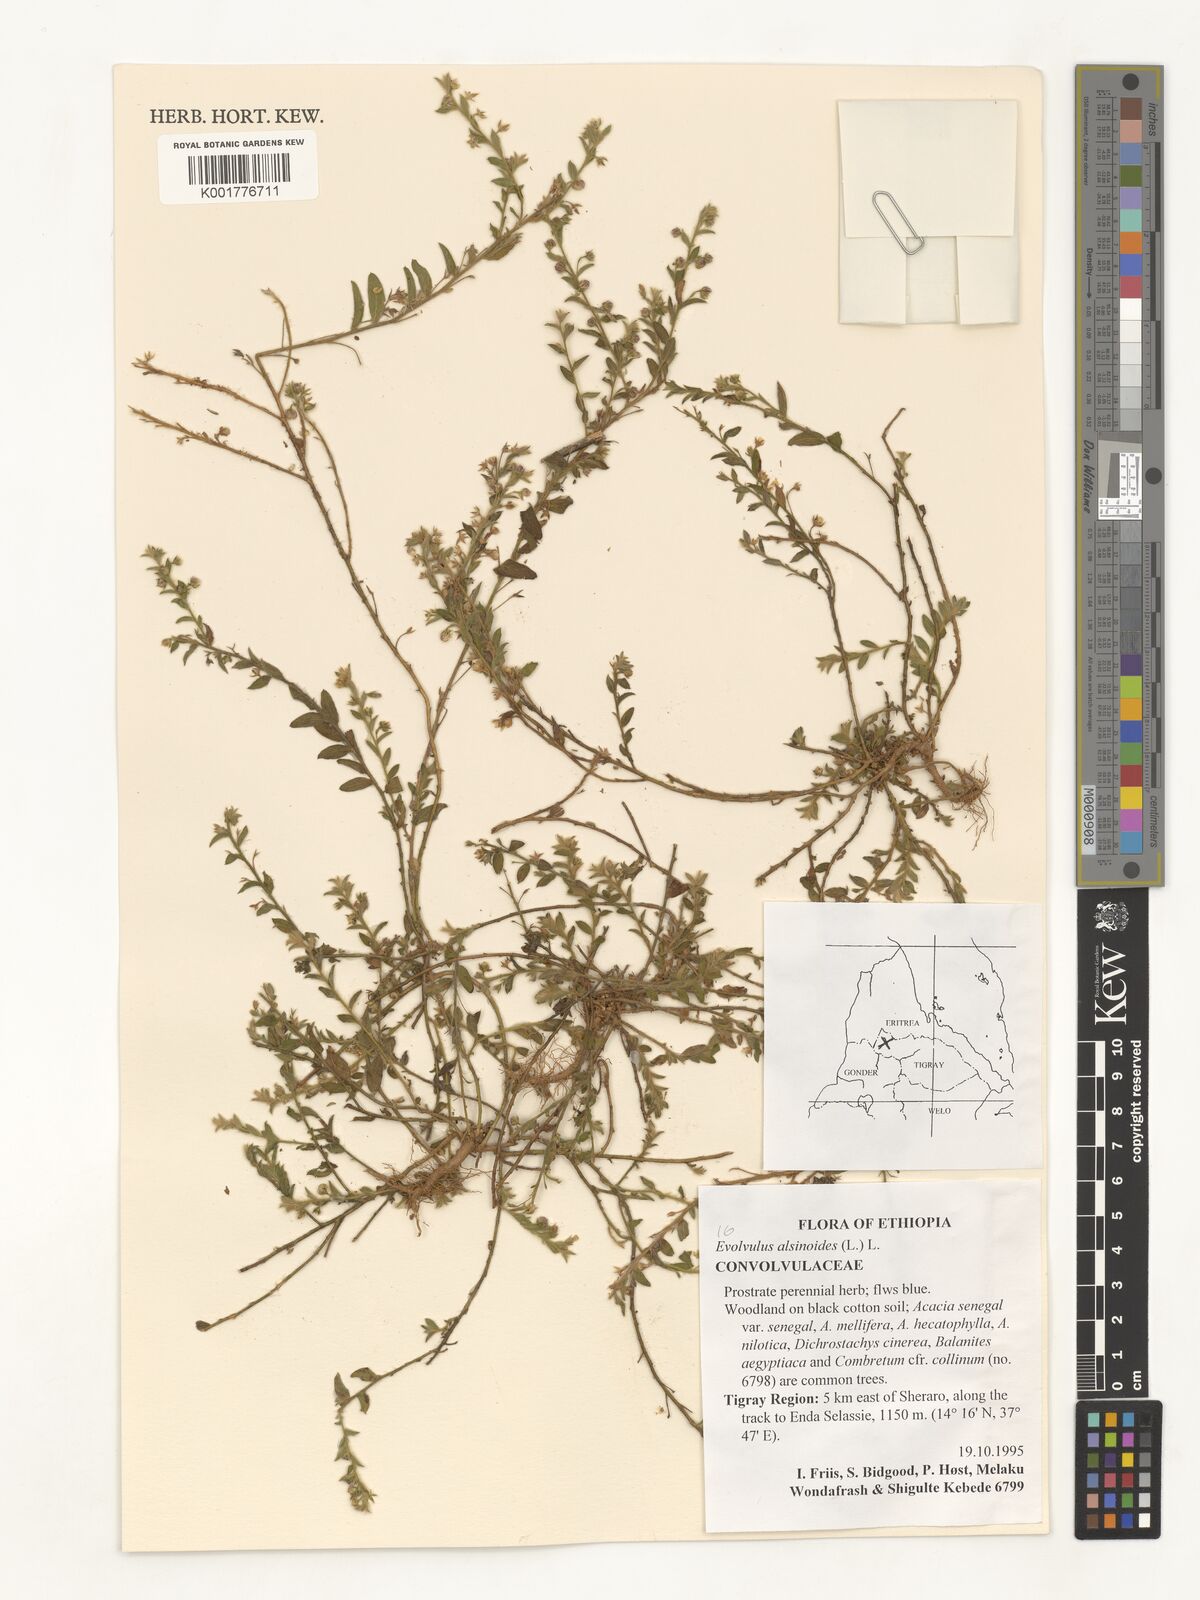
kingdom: Plantae
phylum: Tracheophyta
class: Magnoliopsida
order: Solanales
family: Convolvulaceae
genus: Evolvulus
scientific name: Evolvulus alsinoides
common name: Slender dwarf morning-glory
